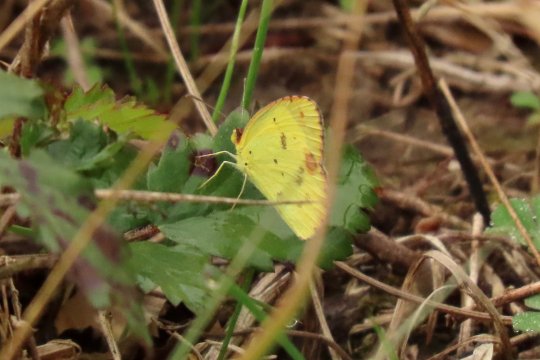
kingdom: Animalia
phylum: Arthropoda
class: Insecta
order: Lepidoptera
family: Pieridae
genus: Pyrisitia
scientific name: Pyrisitia lisa
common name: Little Yellow
